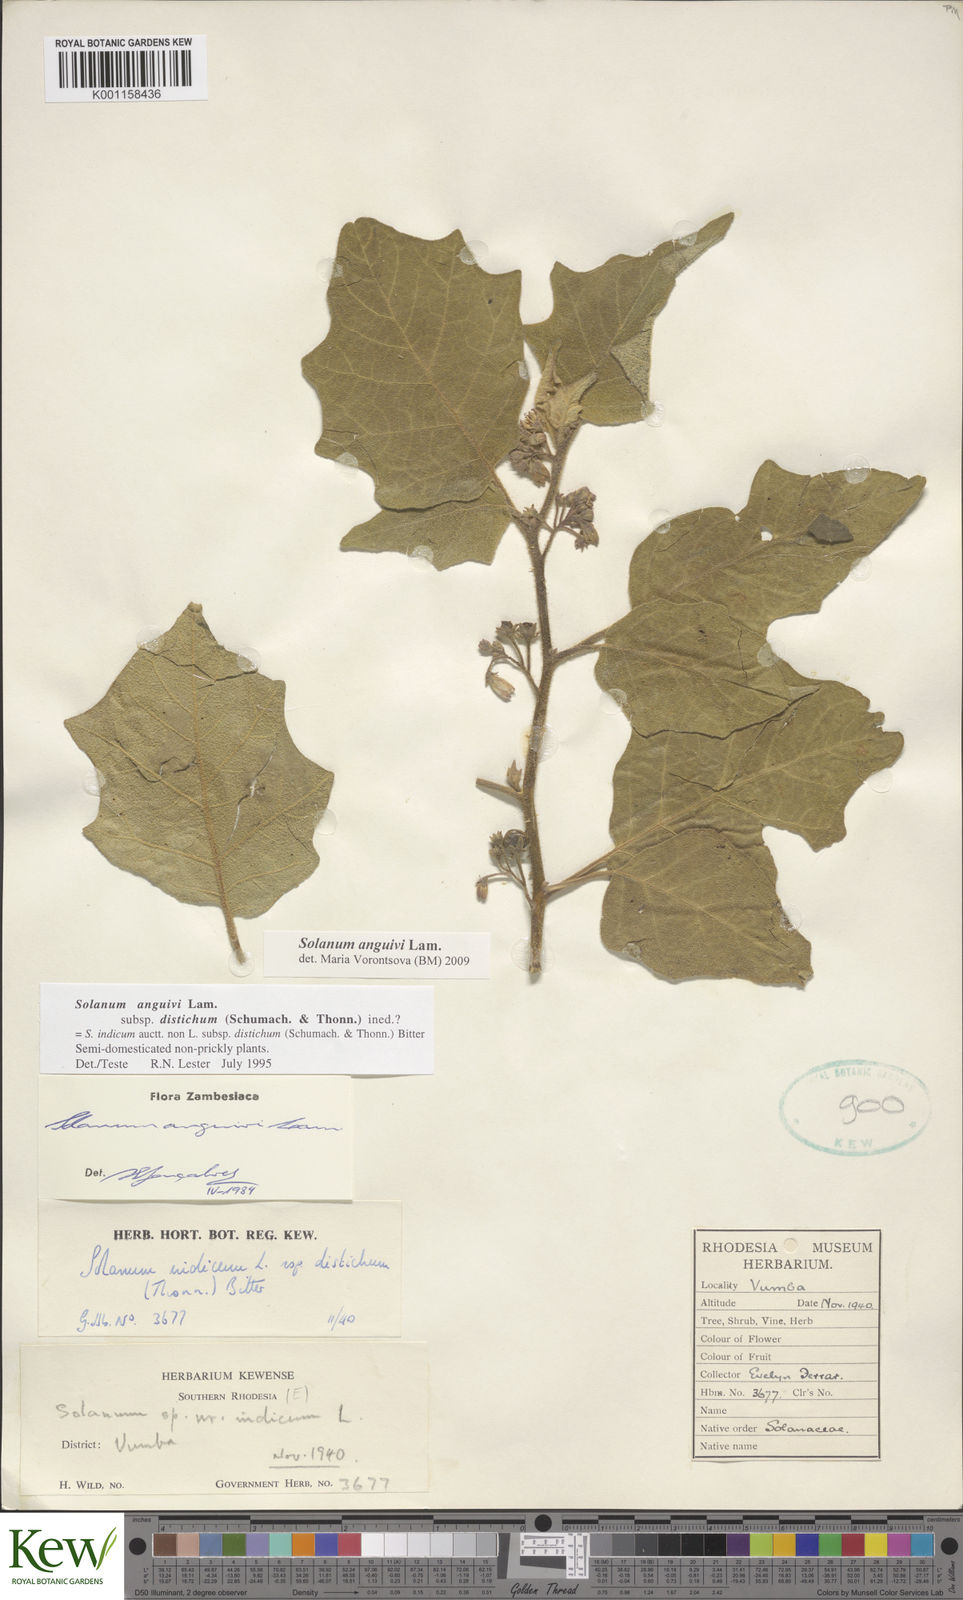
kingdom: Plantae
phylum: Tracheophyta
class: Magnoliopsida
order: Solanales
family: Solanaceae
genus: Solanum
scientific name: Solanum anguivi
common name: Forest bitterberry
